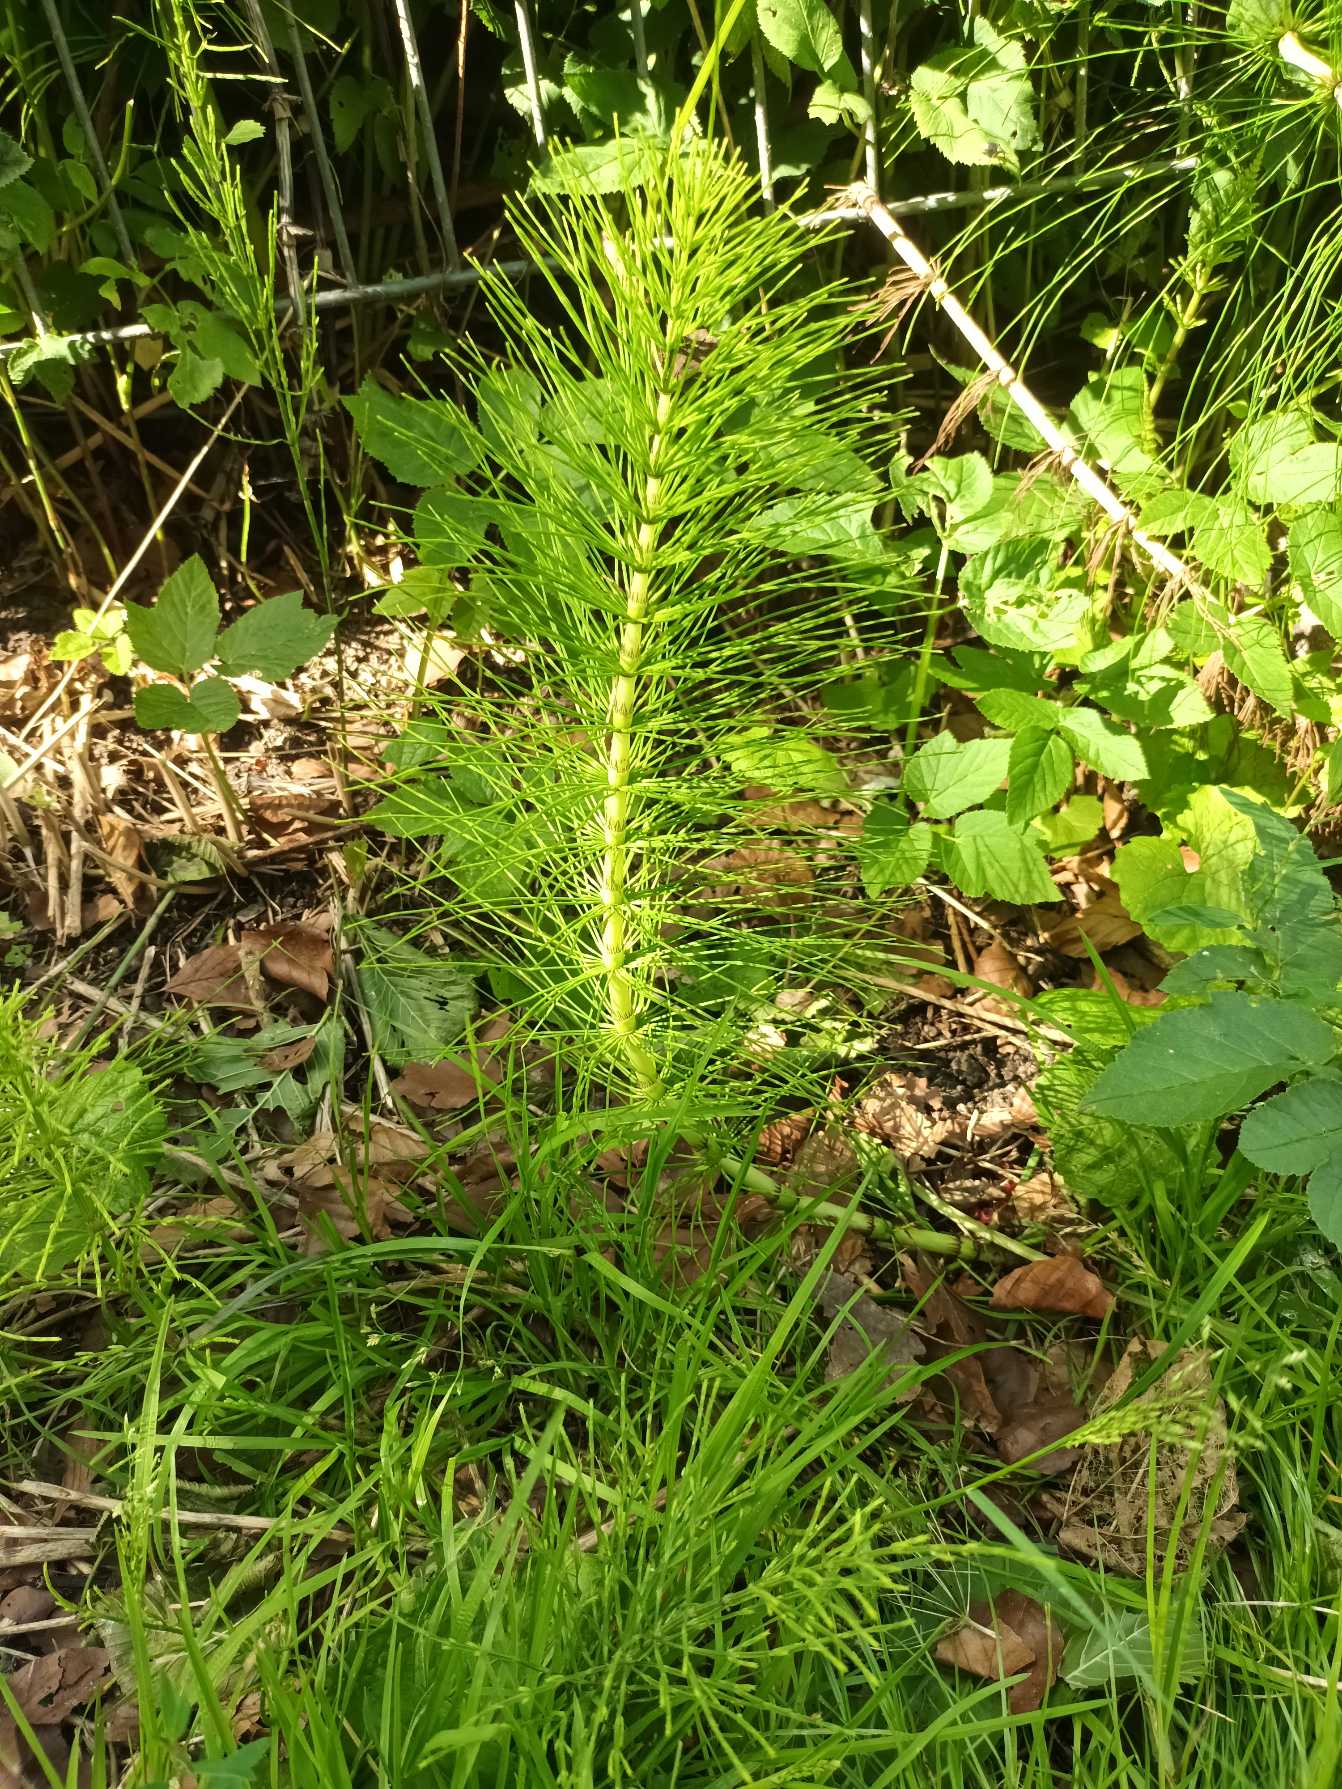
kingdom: Plantae
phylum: Tracheophyta
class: Polypodiopsida
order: Equisetales
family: Equisetaceae
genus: Equisetum
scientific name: Equisetum telmateia
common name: Elfenbens-padderok
